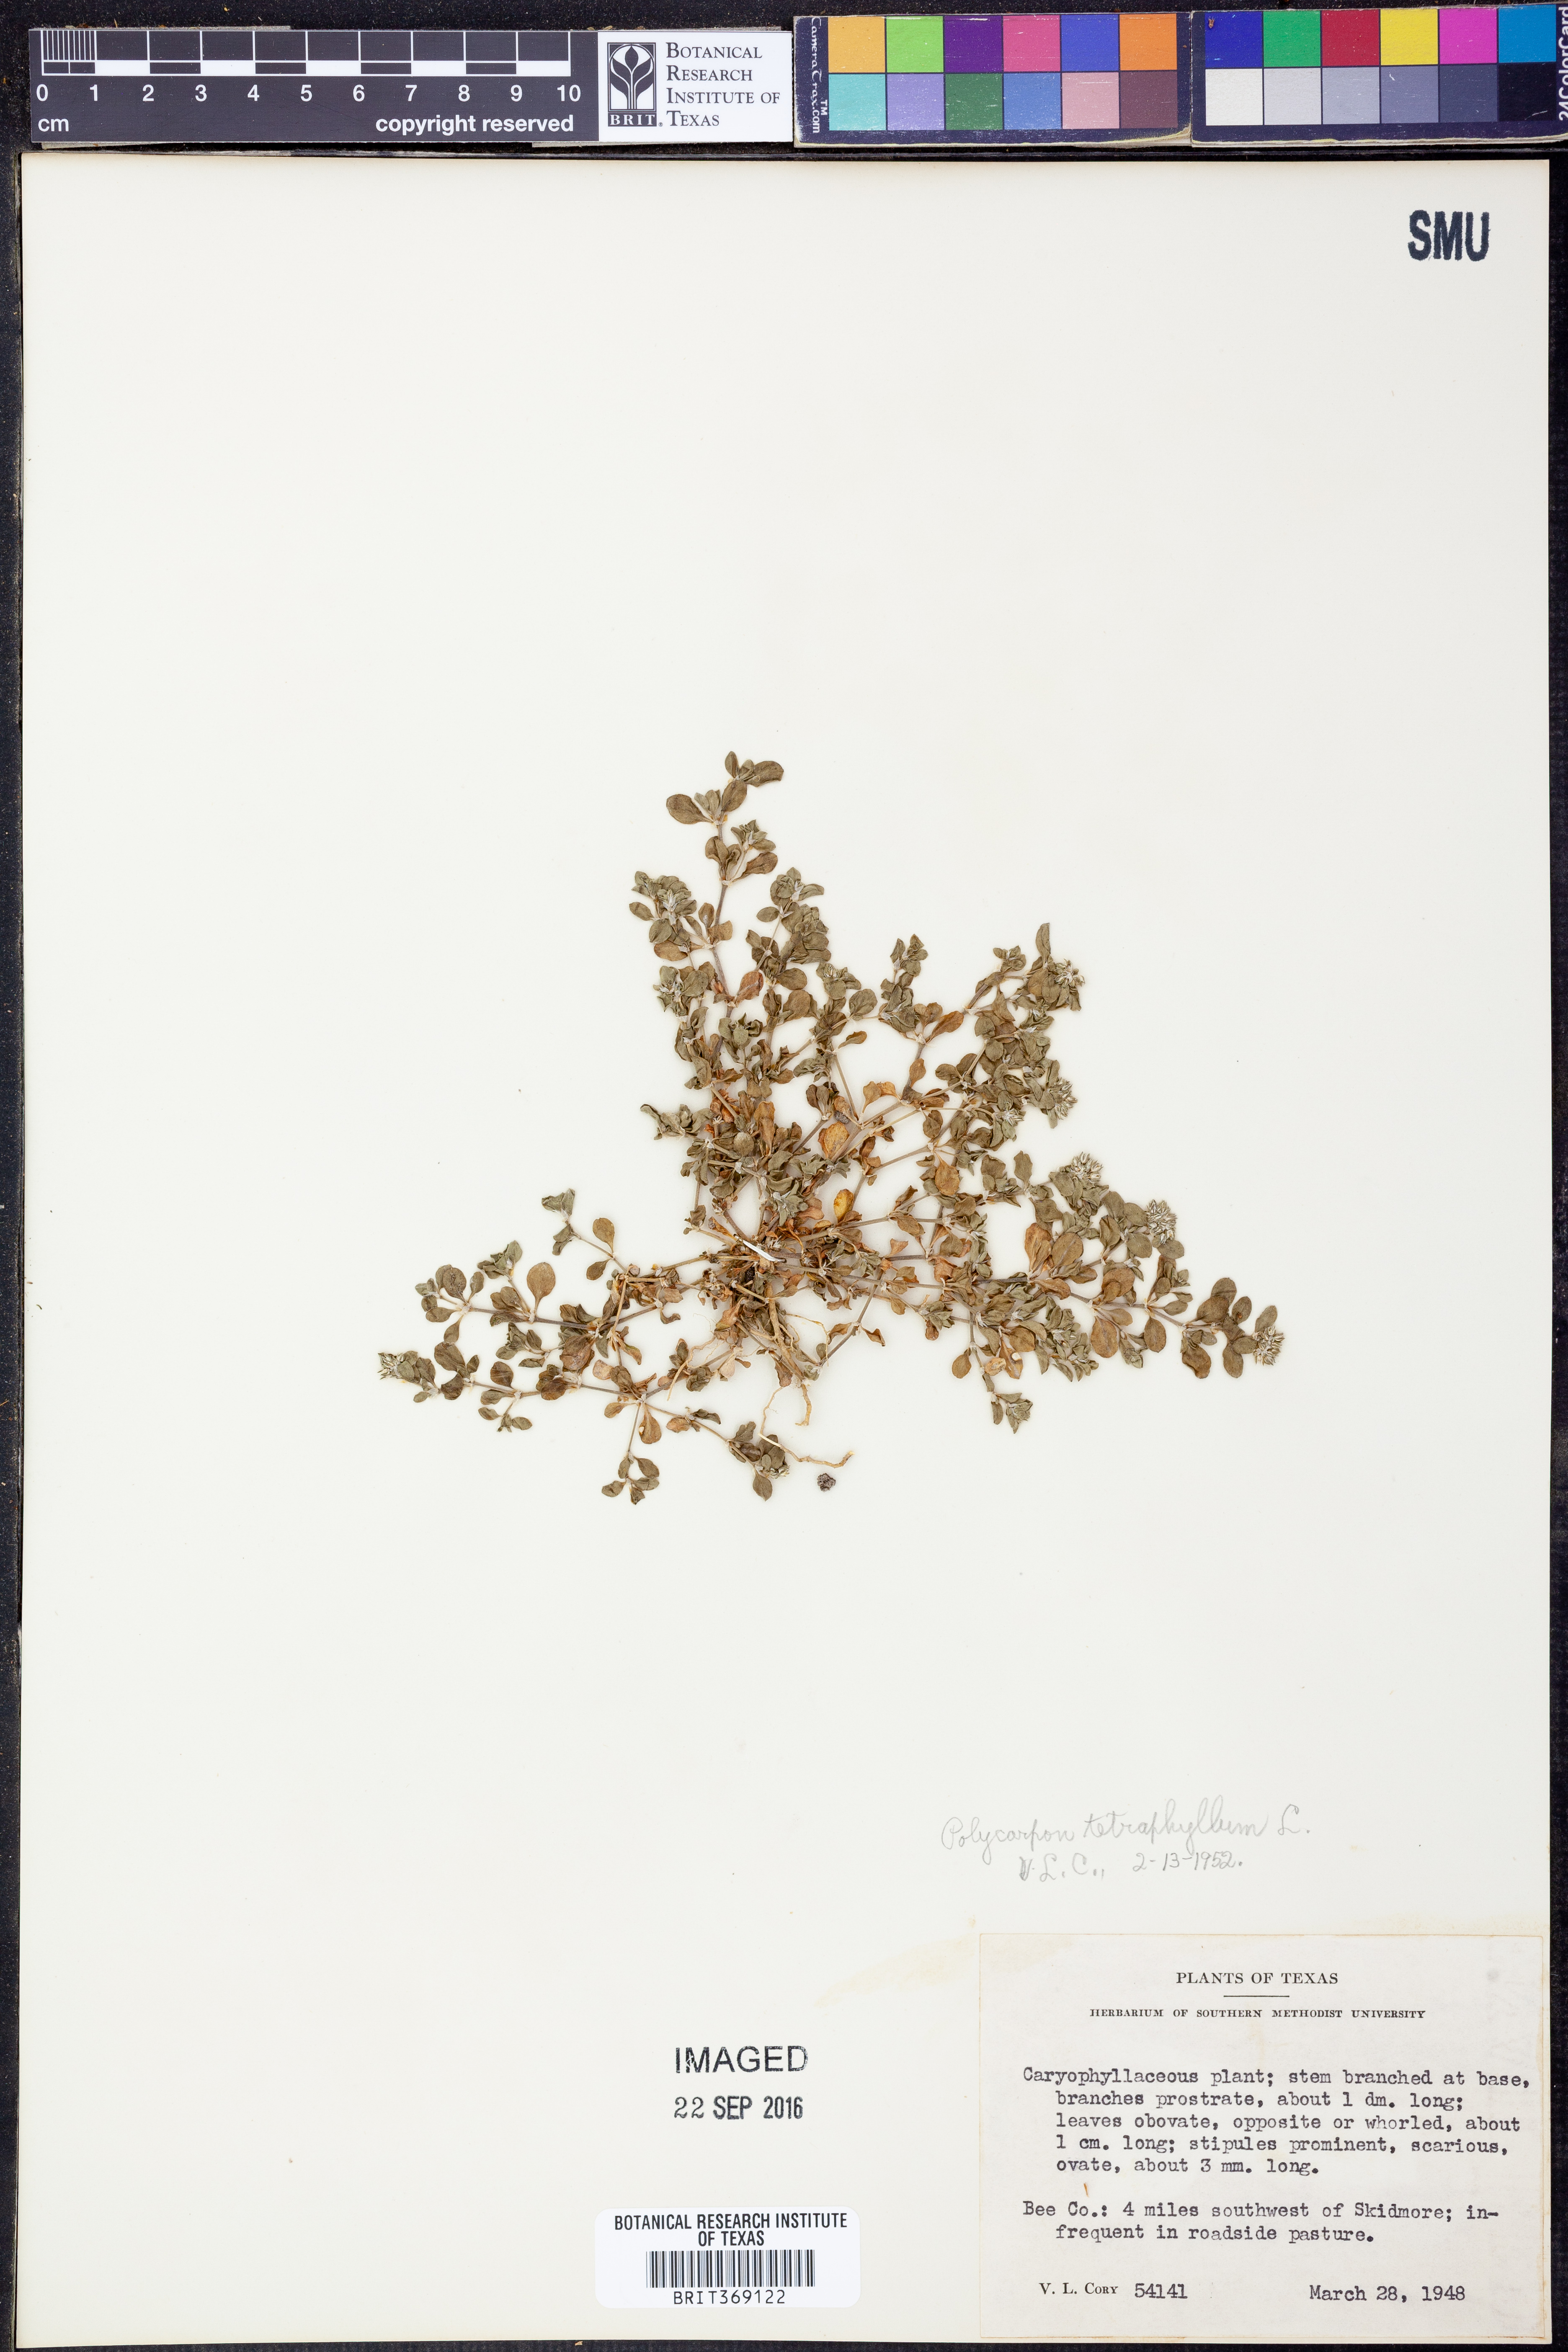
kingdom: Plantae
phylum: Tracheophyta
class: Magnoliopsida
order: Caryophyllales
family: Caryophyllaceae
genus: Polycarpon
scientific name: Polycarpon tetraphyllum
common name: Four-leaved all-seed
